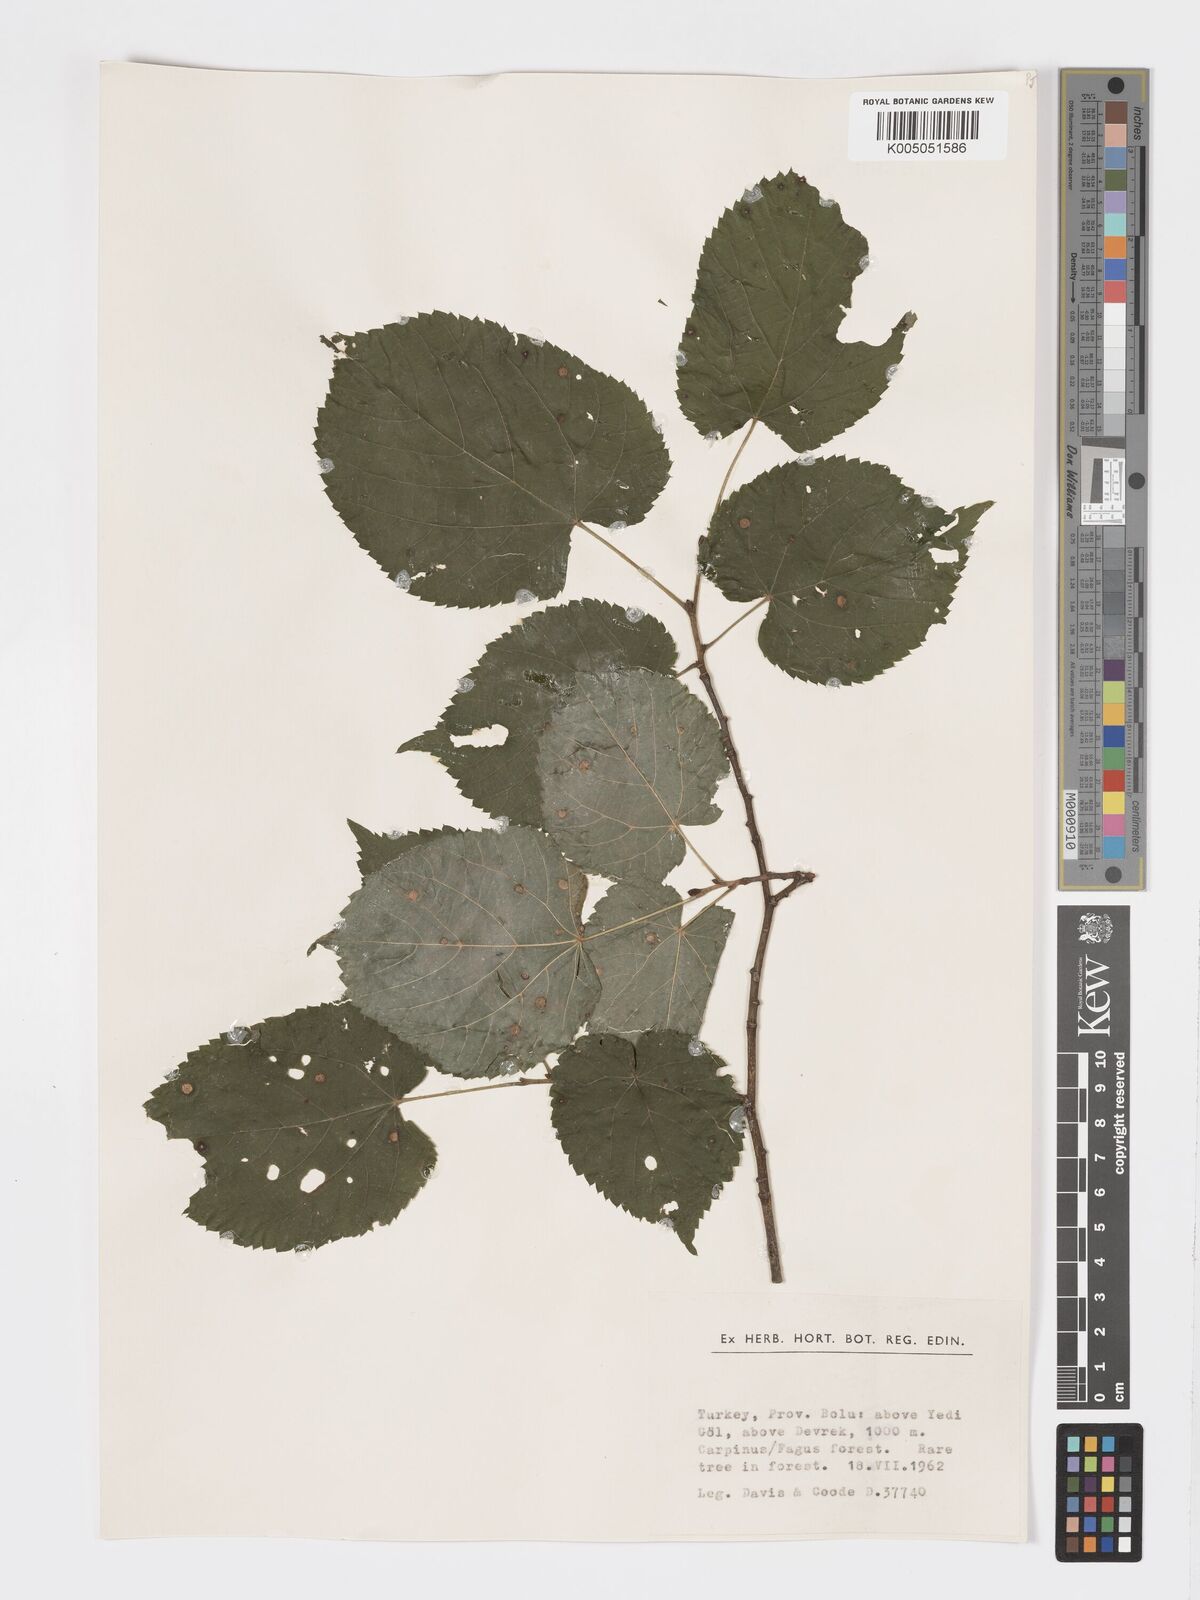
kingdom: Plantae
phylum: Tracheophyta
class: Magnoliopsida
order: Malvales
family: Malvaceae
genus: Tilia
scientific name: Tilia
